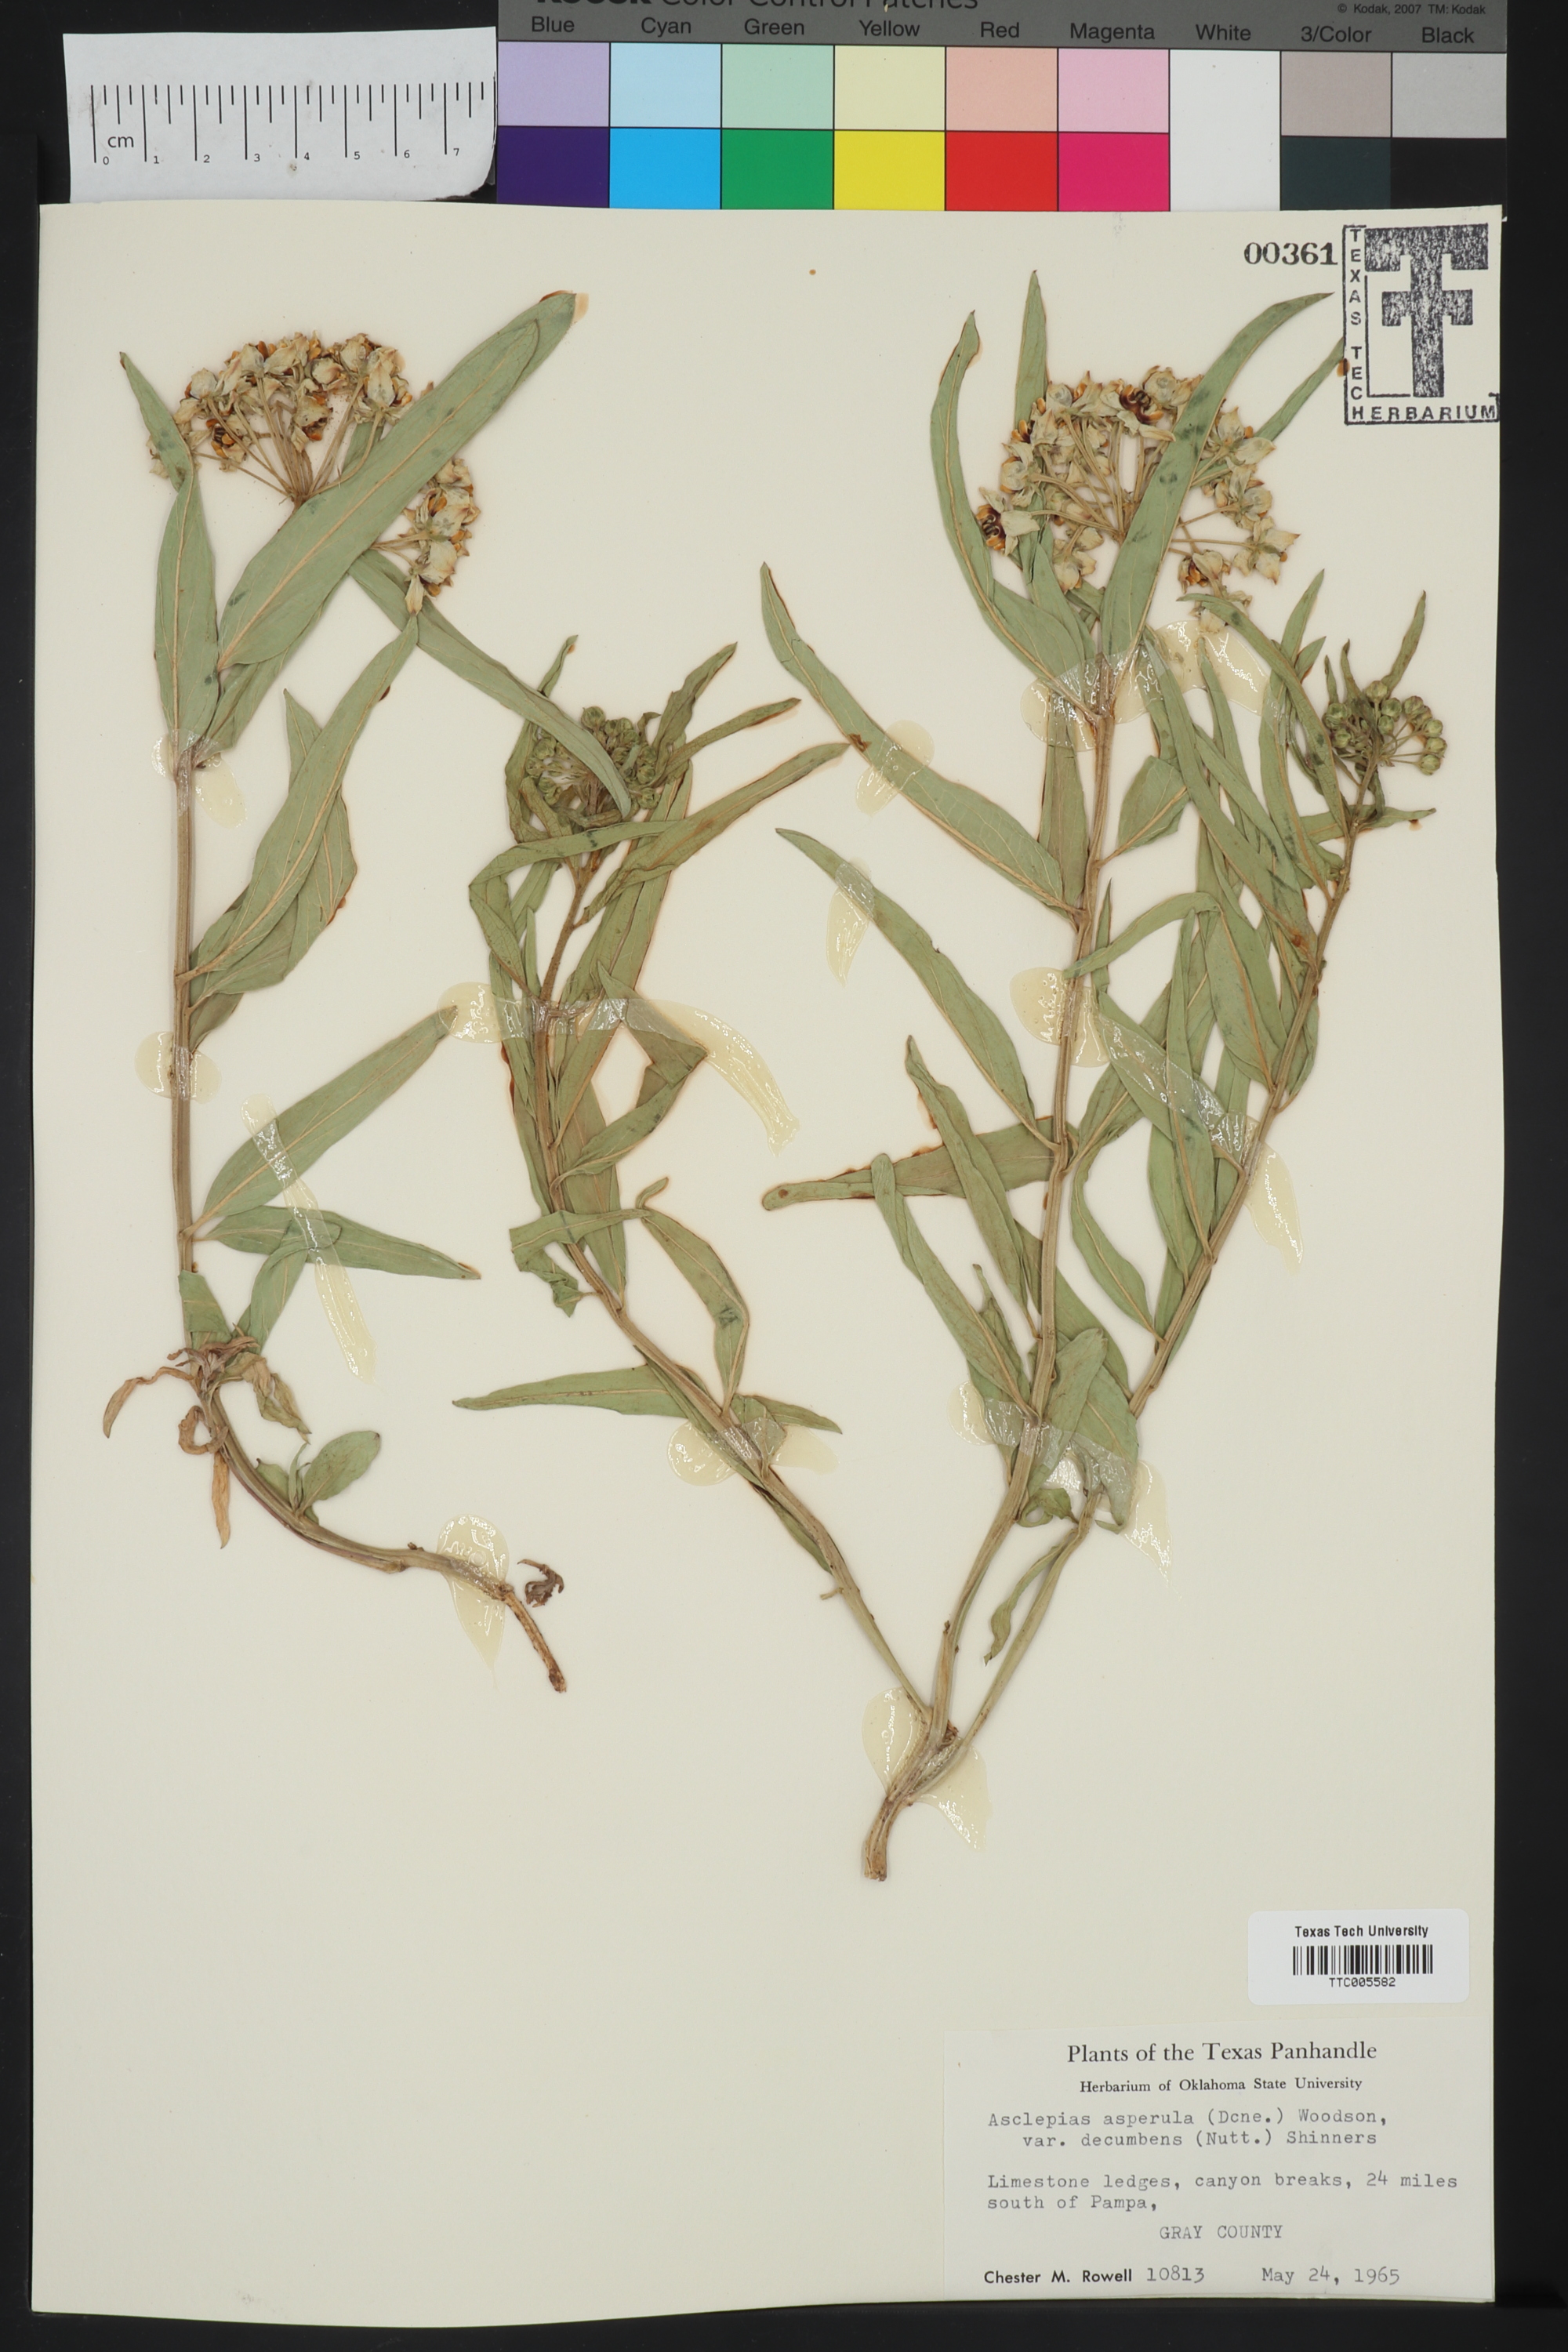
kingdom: Plantae
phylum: Tracheophyta
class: Magnoliopsida
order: Gentianales
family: Apocynaceae
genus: Asclepias
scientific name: Asclepias asperula
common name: Antelope horns
